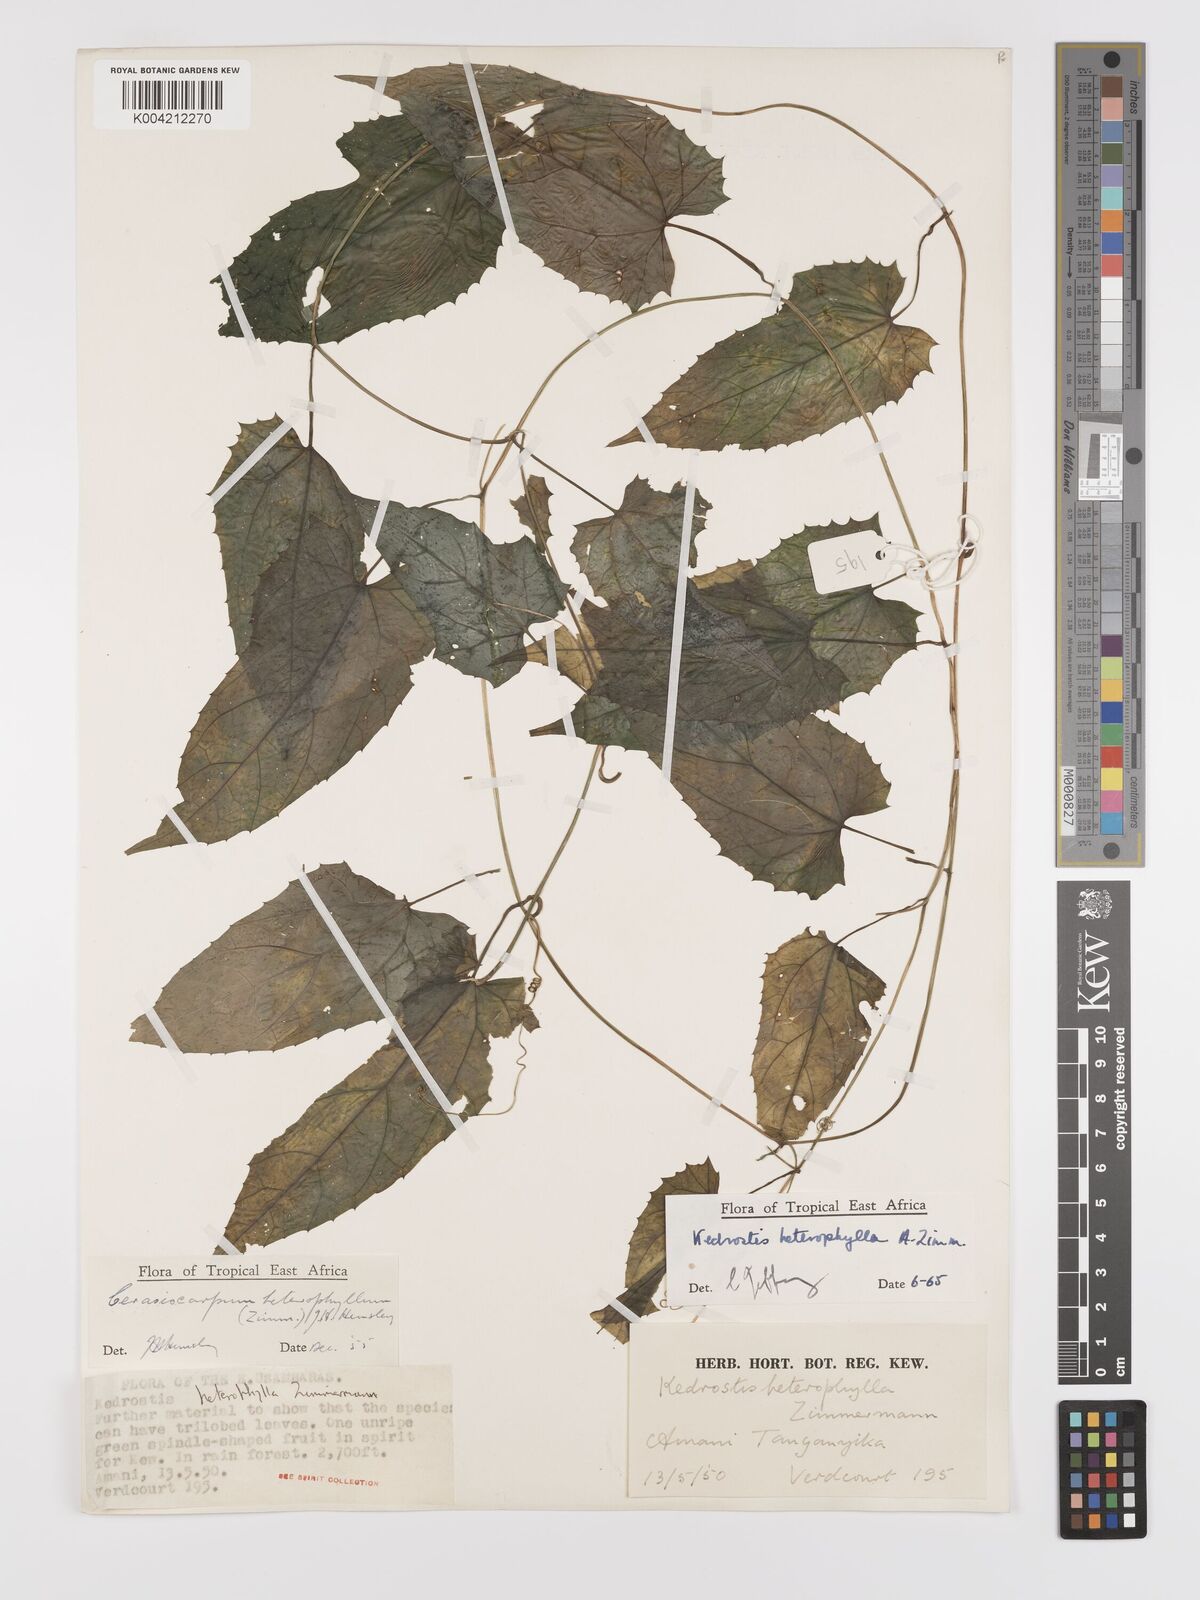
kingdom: Plantae
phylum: Tracheophyta
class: Magnoliopsida
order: Cucurbitales
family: Cucurbitaceae
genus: Kedrostis
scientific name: Kedrostis heterophylla
